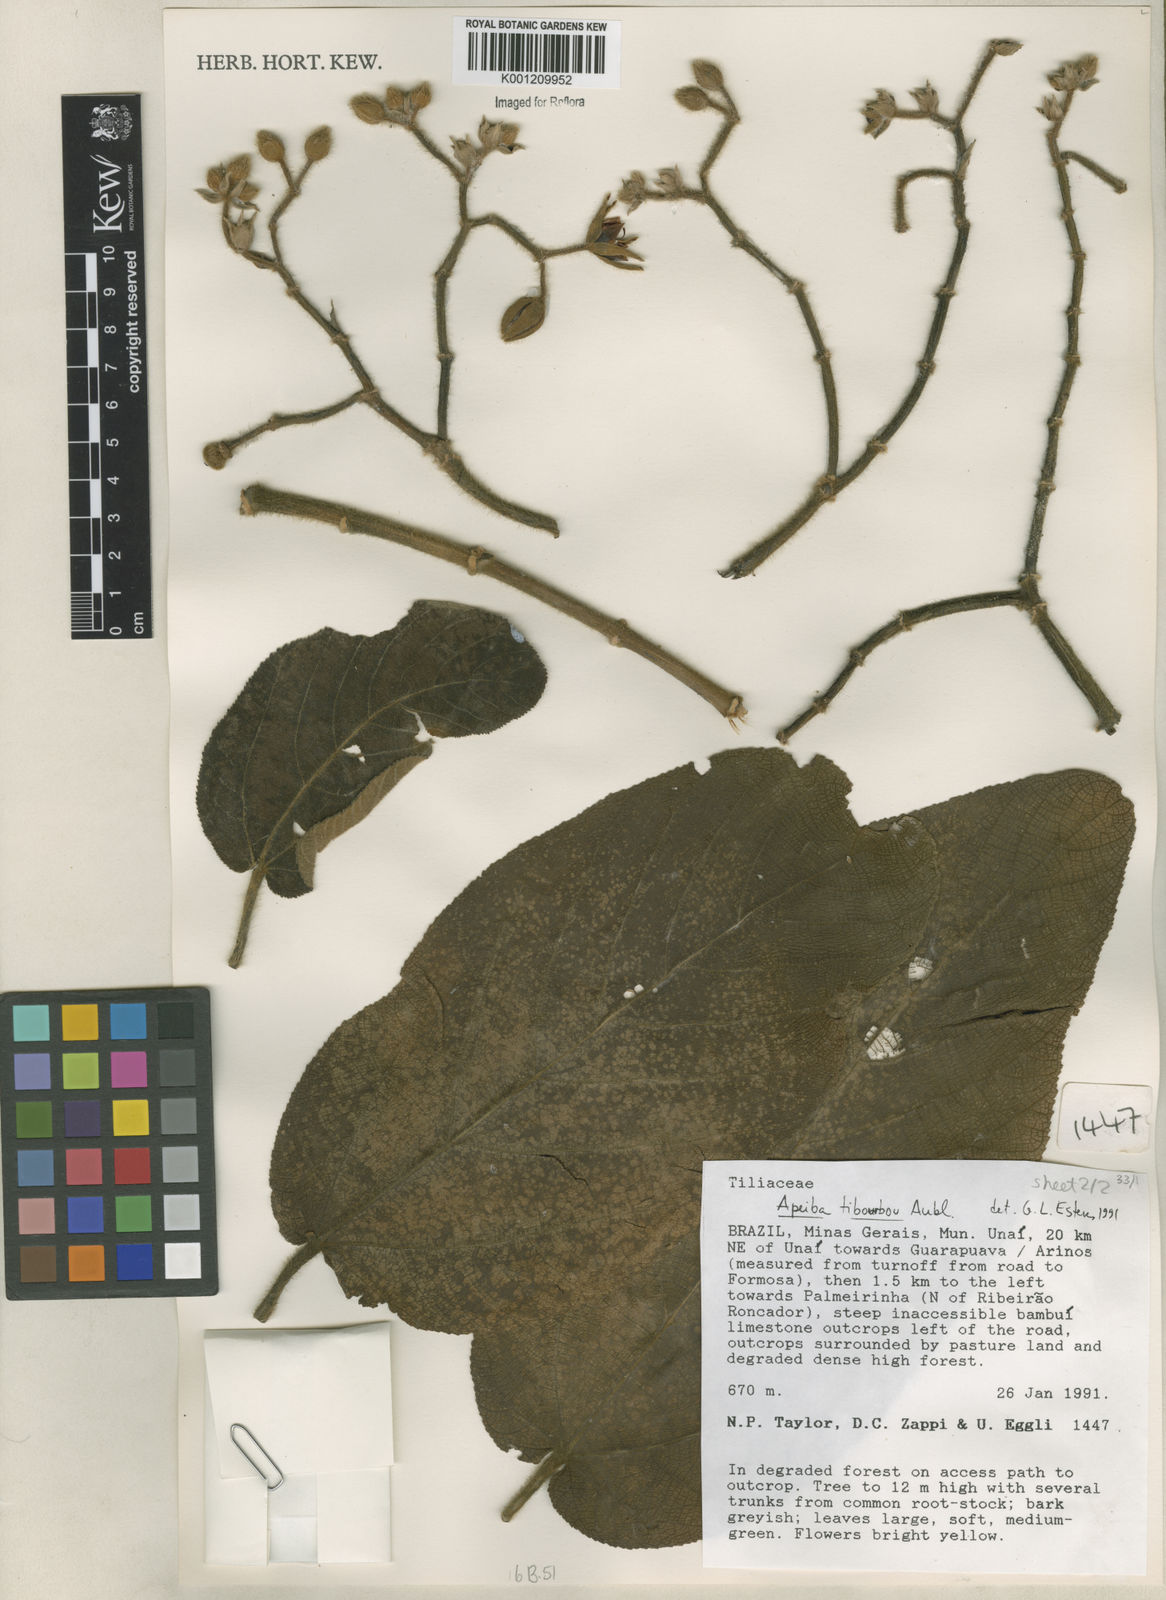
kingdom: Plantae
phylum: Tracheophyta
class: Magnoliopsida
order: Malvales
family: Malvaceae
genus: Apeiba
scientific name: Apeiba tibourbou
